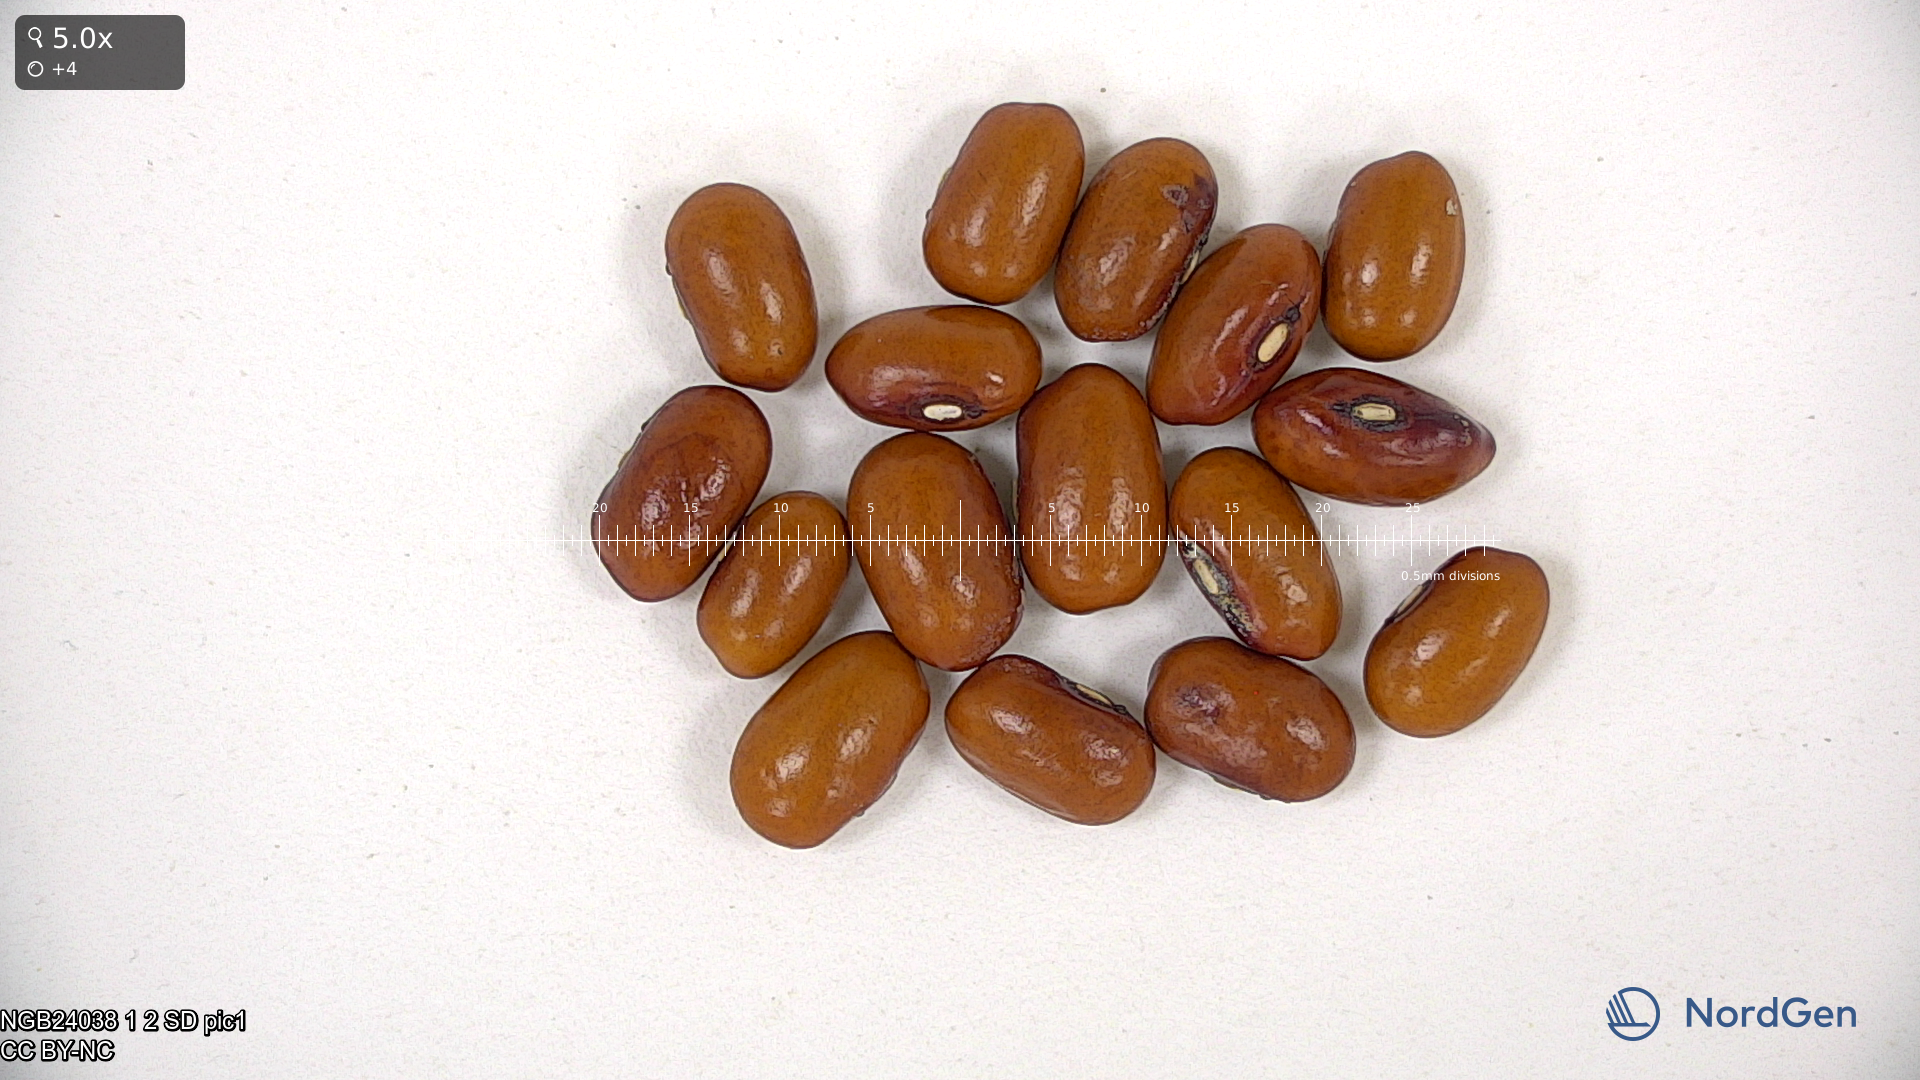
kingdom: Plantae
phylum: Tracheophyta
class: Magnoliopsida
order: Fabales
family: Fabaceae
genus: Phaseolus
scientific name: Phaseolus vulgaris
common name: Bean
